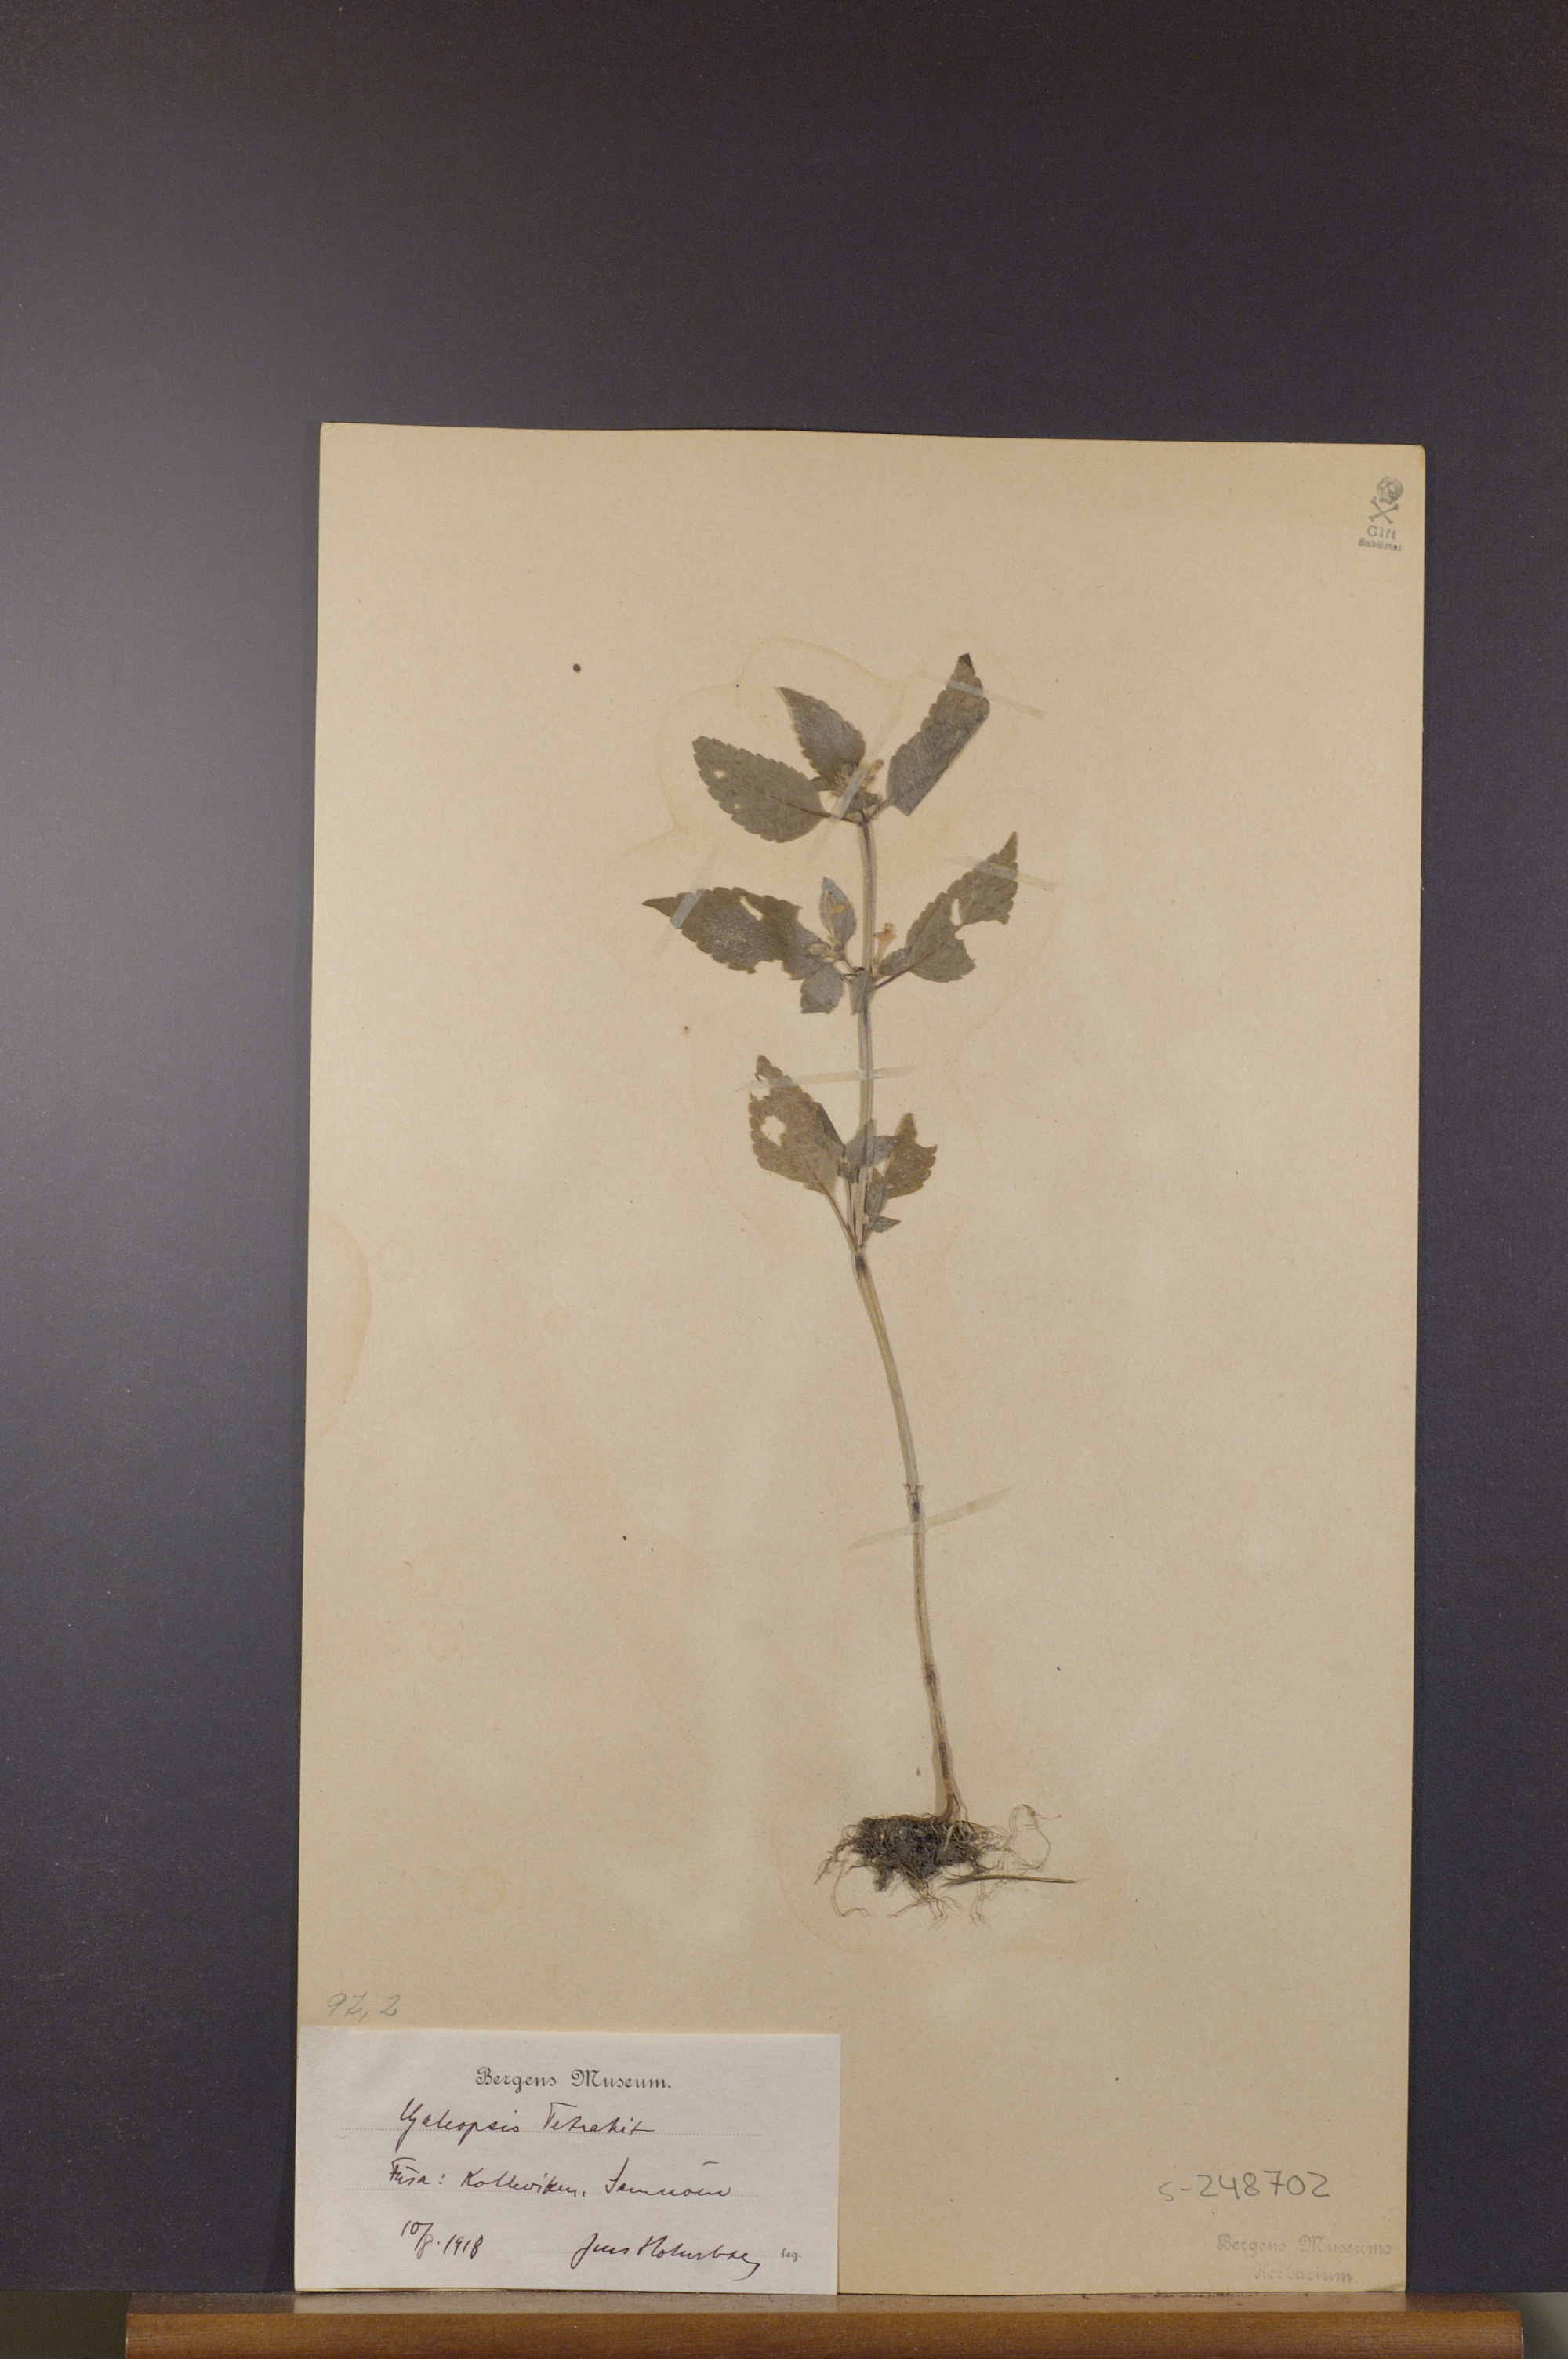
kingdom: Plantae
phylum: Tracheophyta
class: Magnoliopsida
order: Lamiales
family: Lamiaceae
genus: Galeopsis
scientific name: Galeopsis tetrahit
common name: Common hemp-nettle
